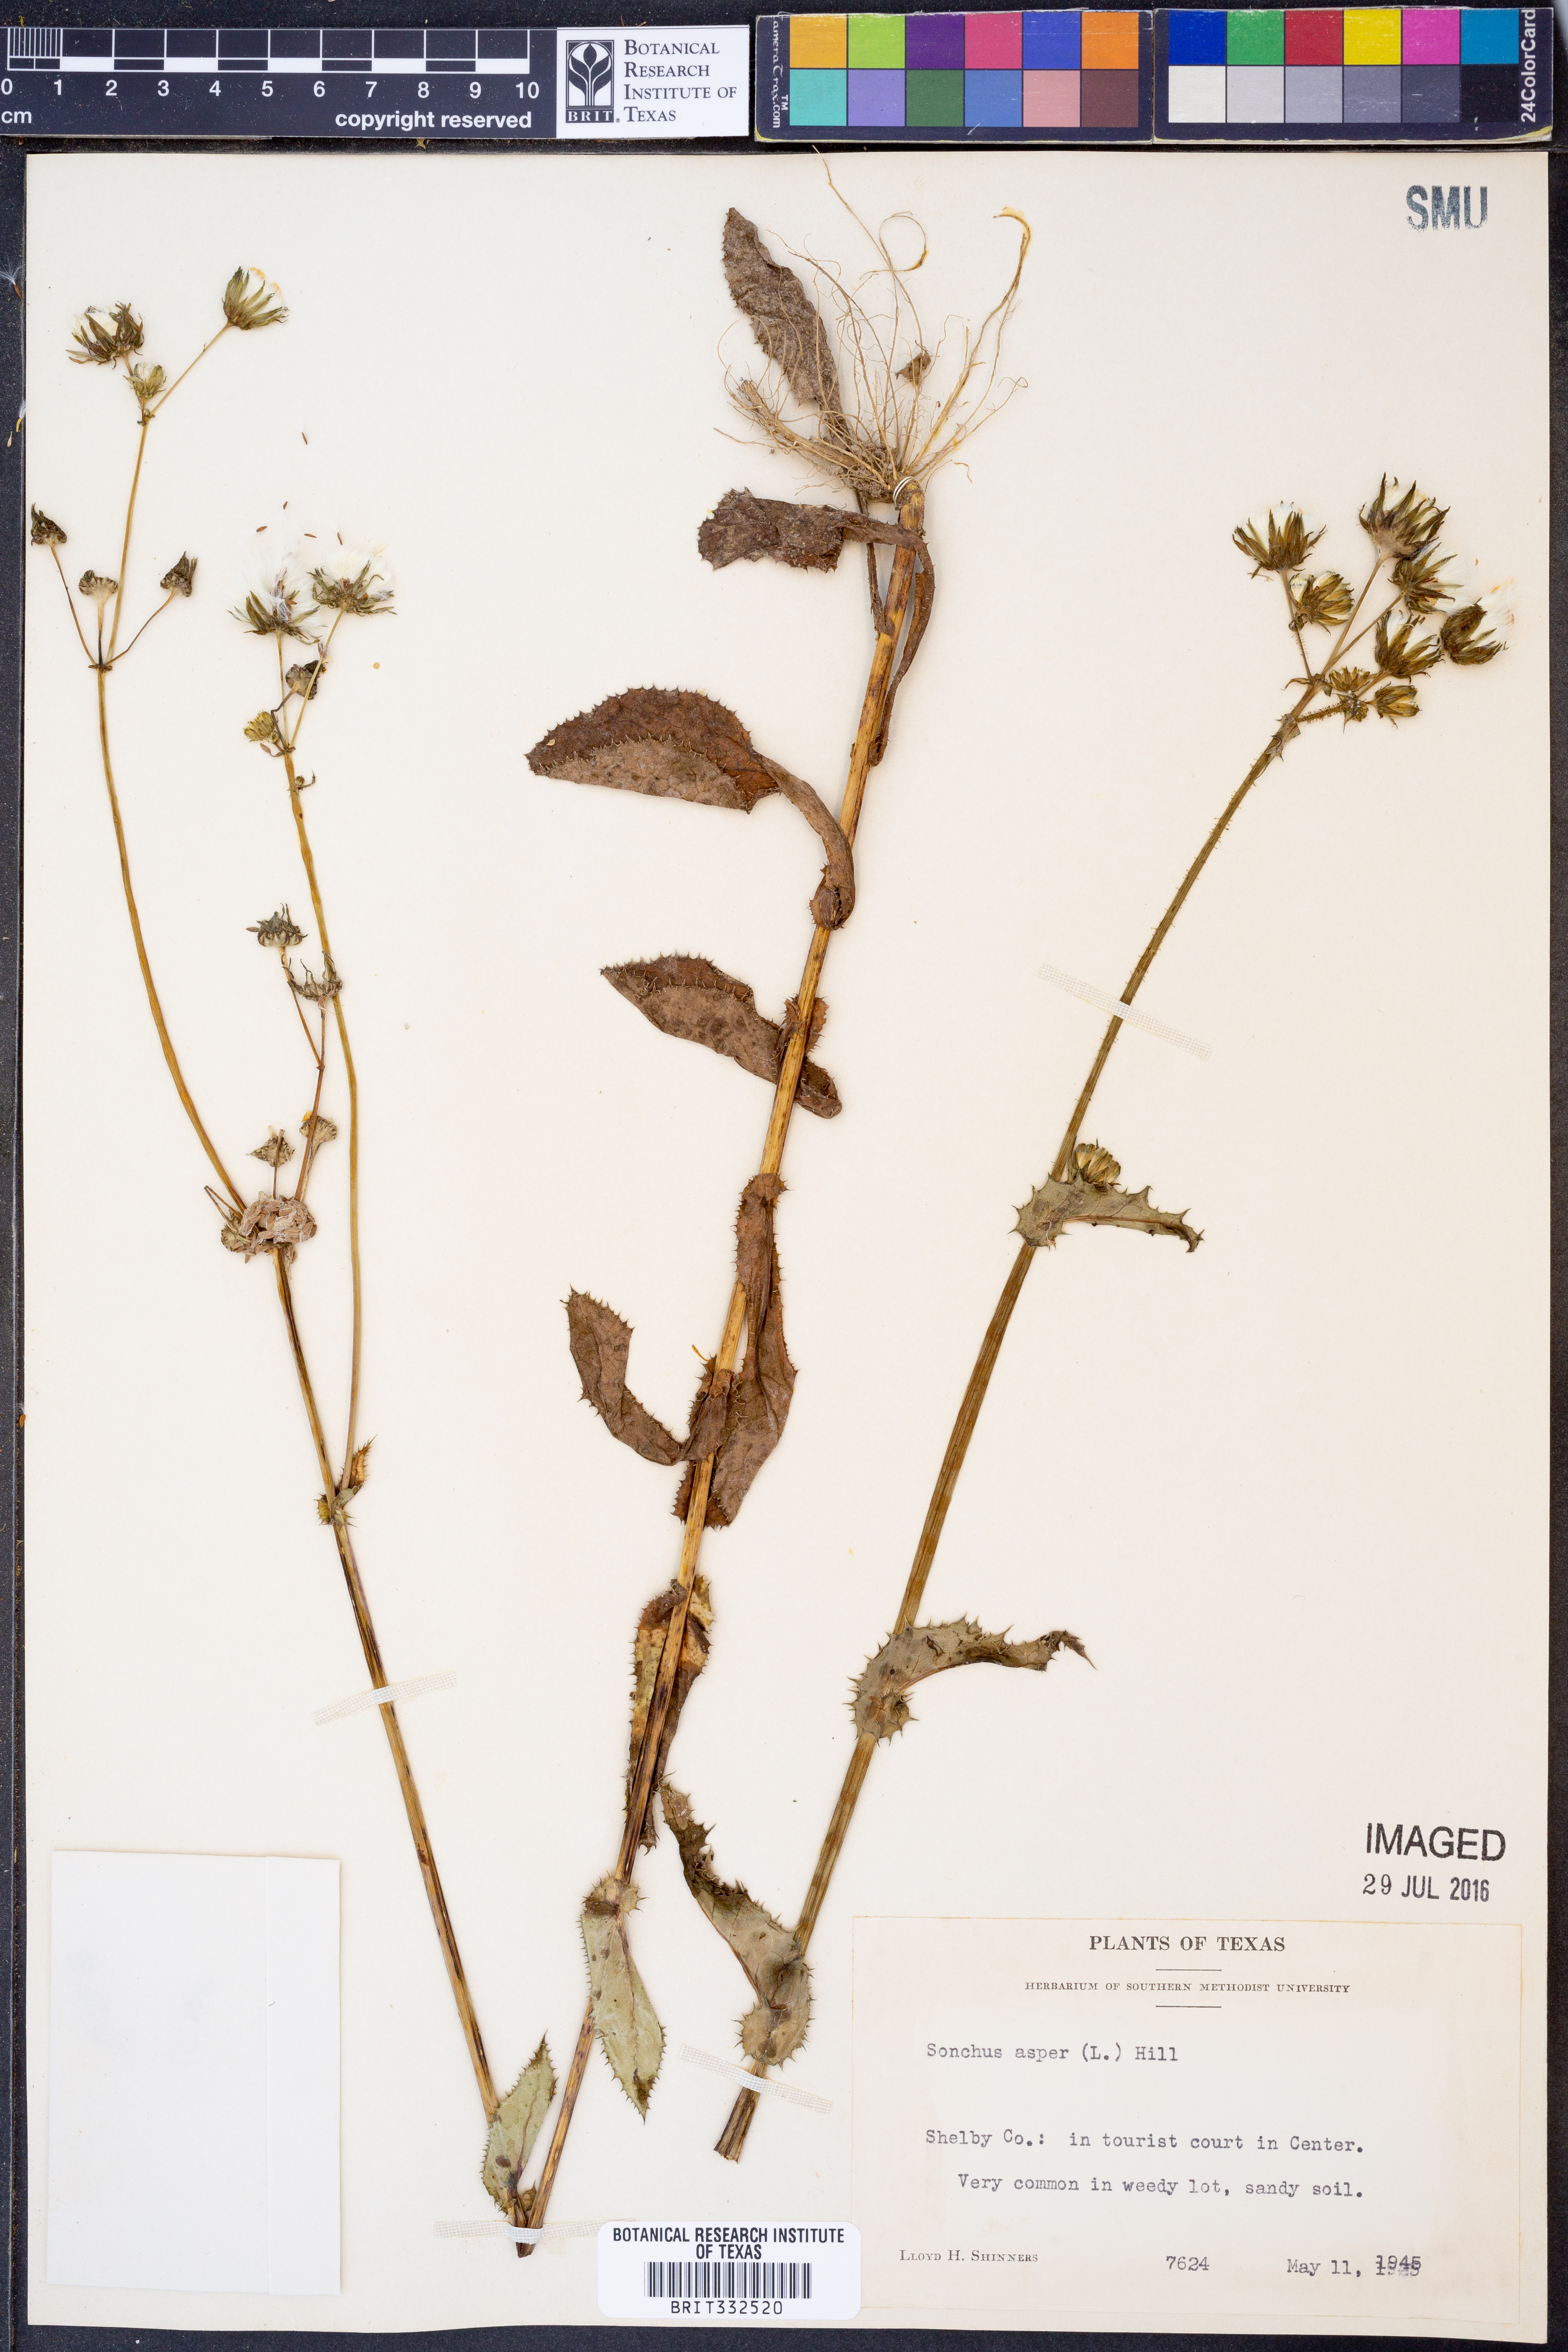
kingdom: Plantae
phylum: Tracheophyta
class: Magnoliopsida
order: Asterales
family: Asteraceae
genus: Sonchus
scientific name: Sonchus asper
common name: Prickly sow-thistle
